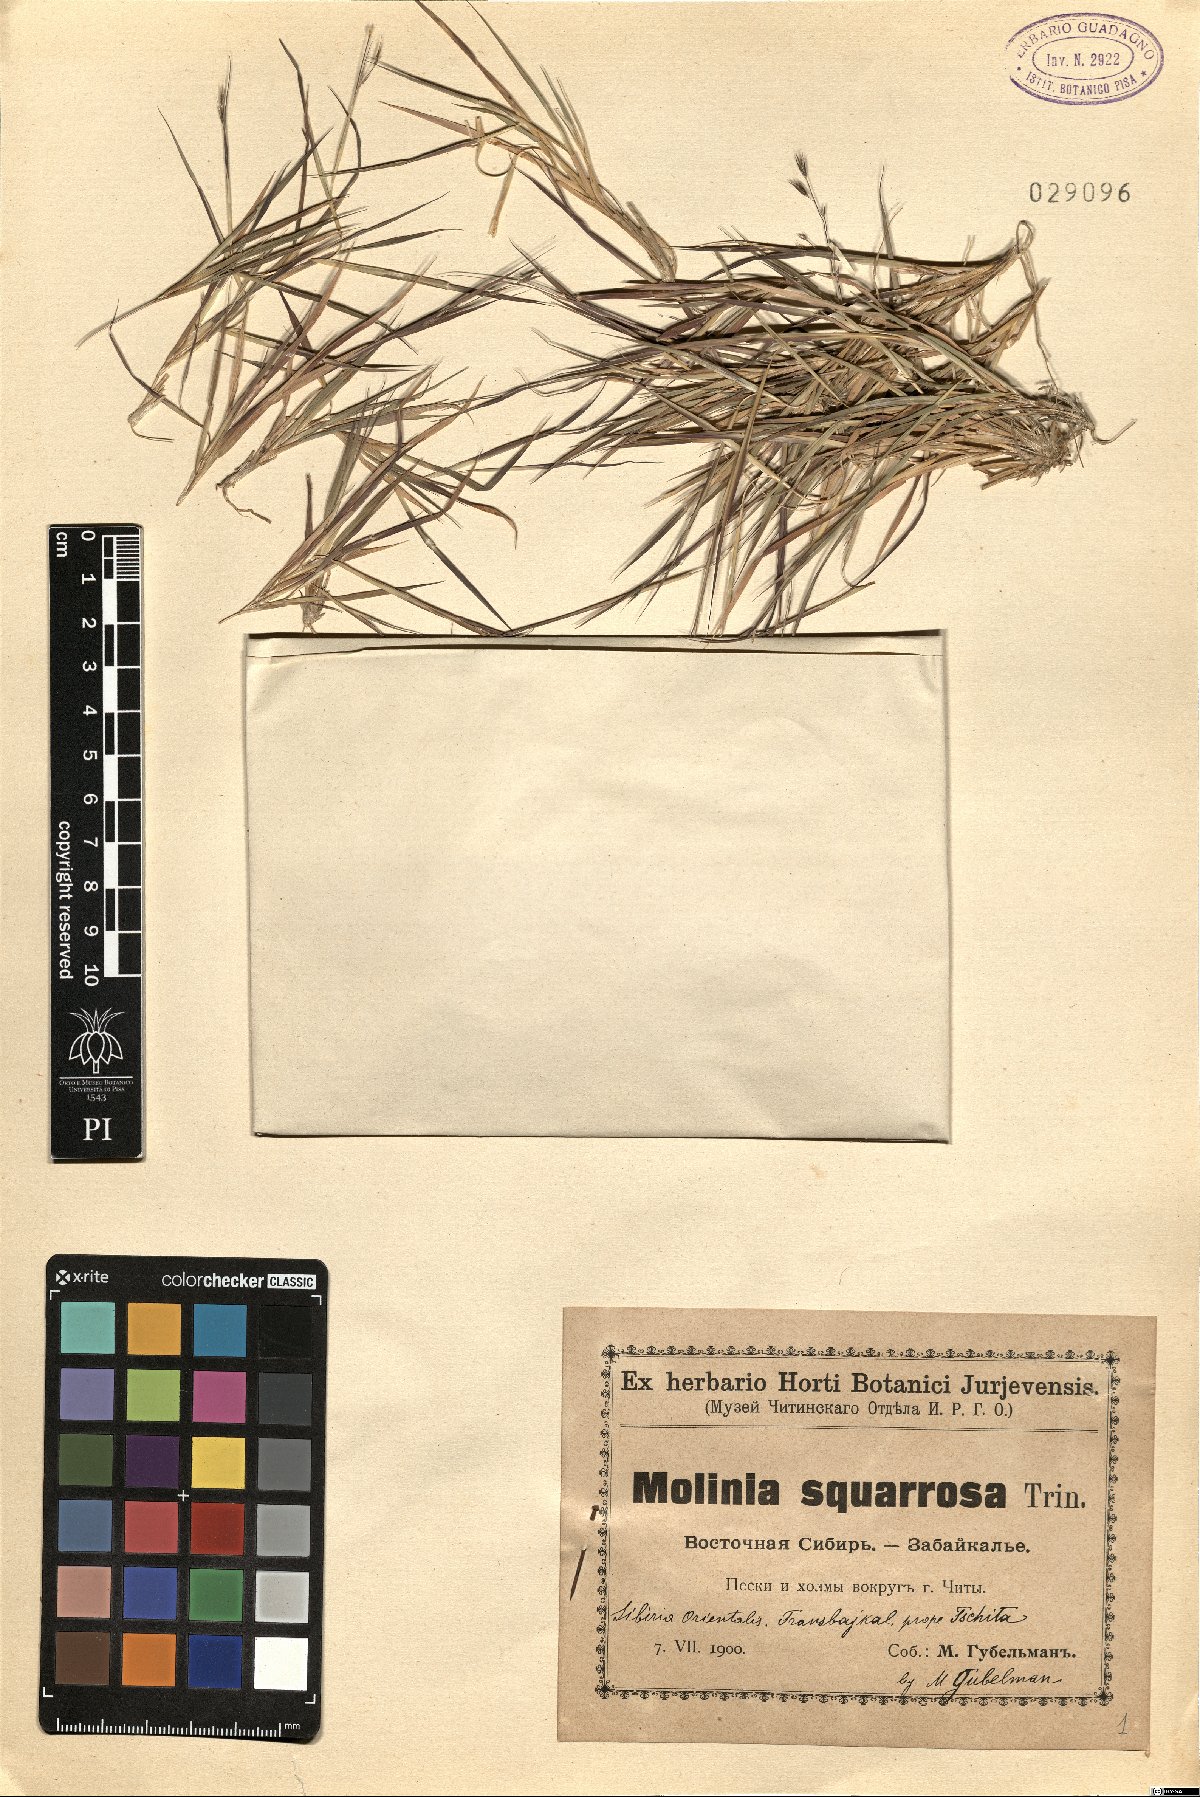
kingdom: Plantae
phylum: Tracheophyta
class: Liliopsida
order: Poales
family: Poaceae
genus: Cleistogenes
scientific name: Cleistogenes squarrosa
